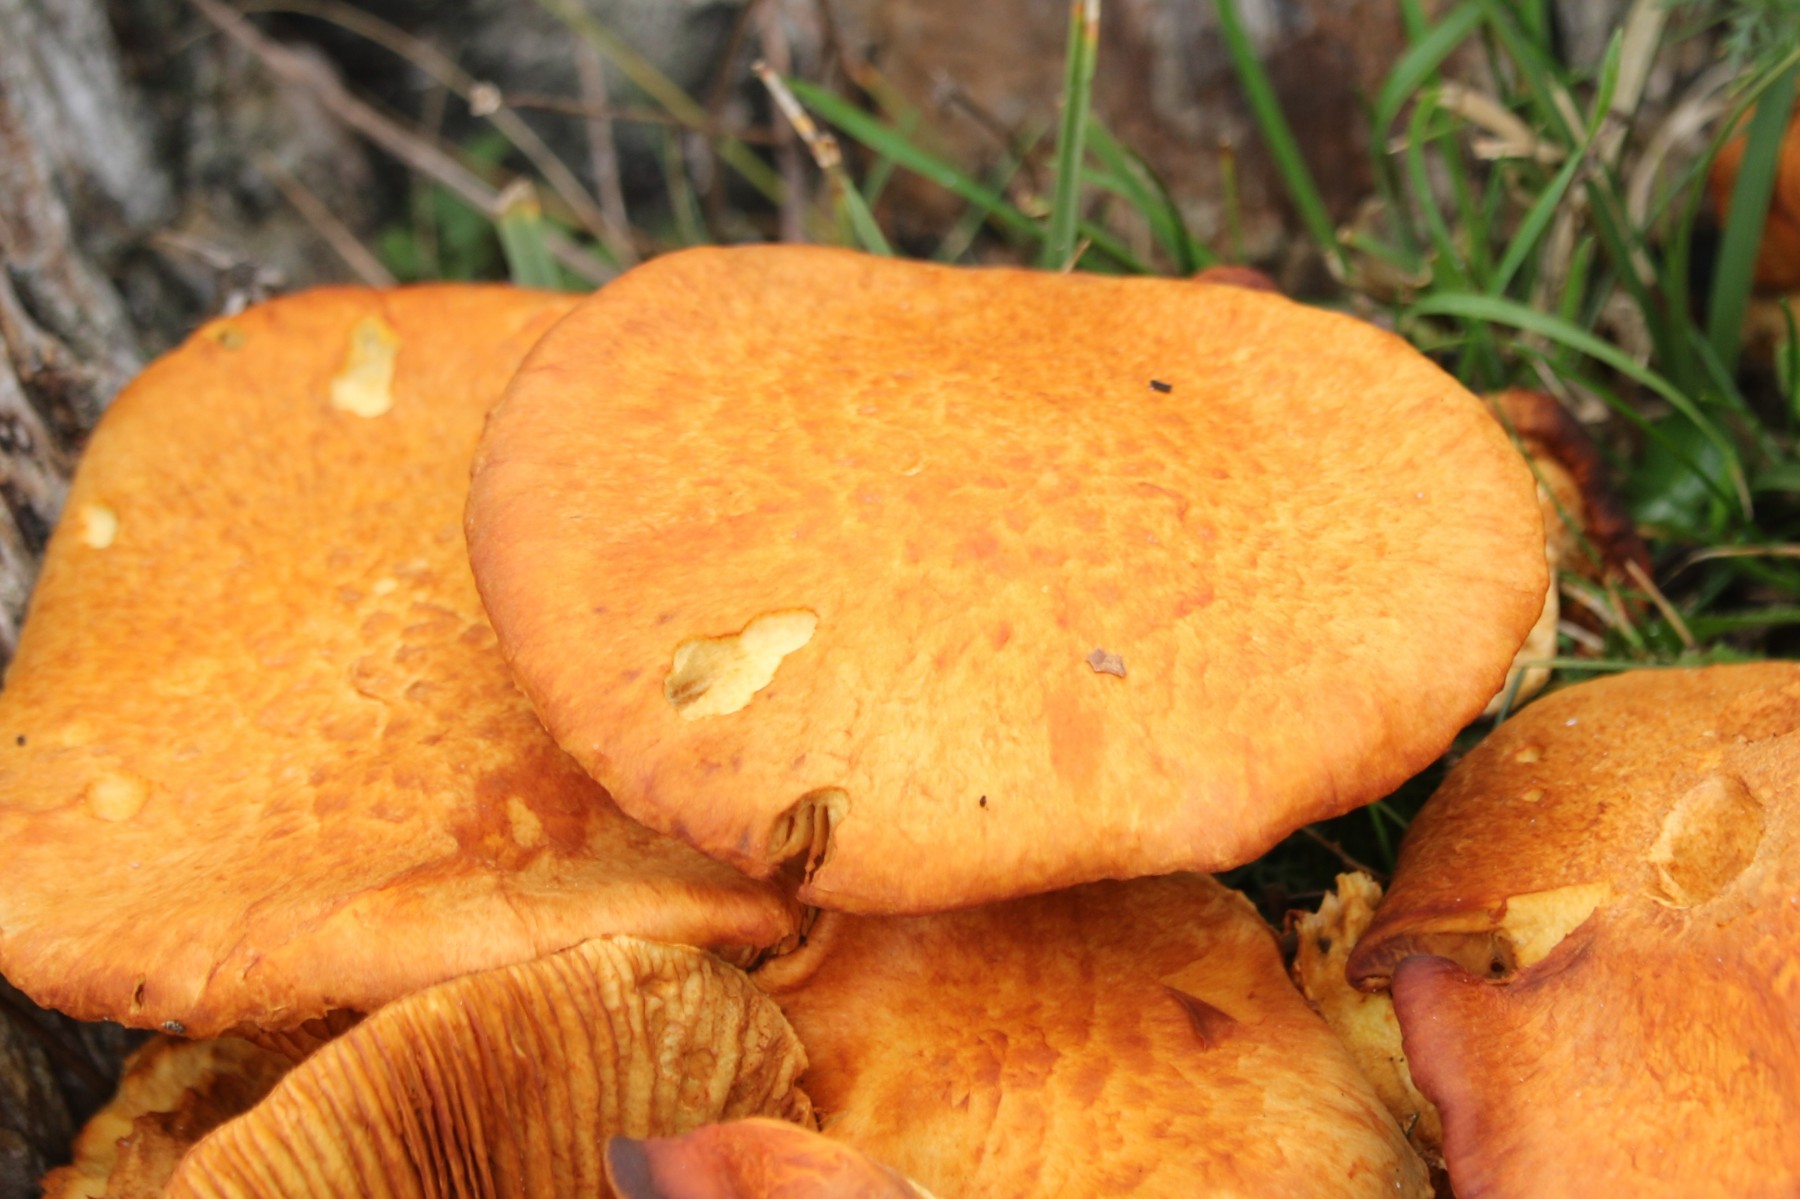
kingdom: Fungi
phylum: Basidiomycota
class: Agaricomycetes
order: Agaricales
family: Hymenogastraceae
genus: Gymnopilus
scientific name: Gymnopilus spectabilis
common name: fibret flammehat
